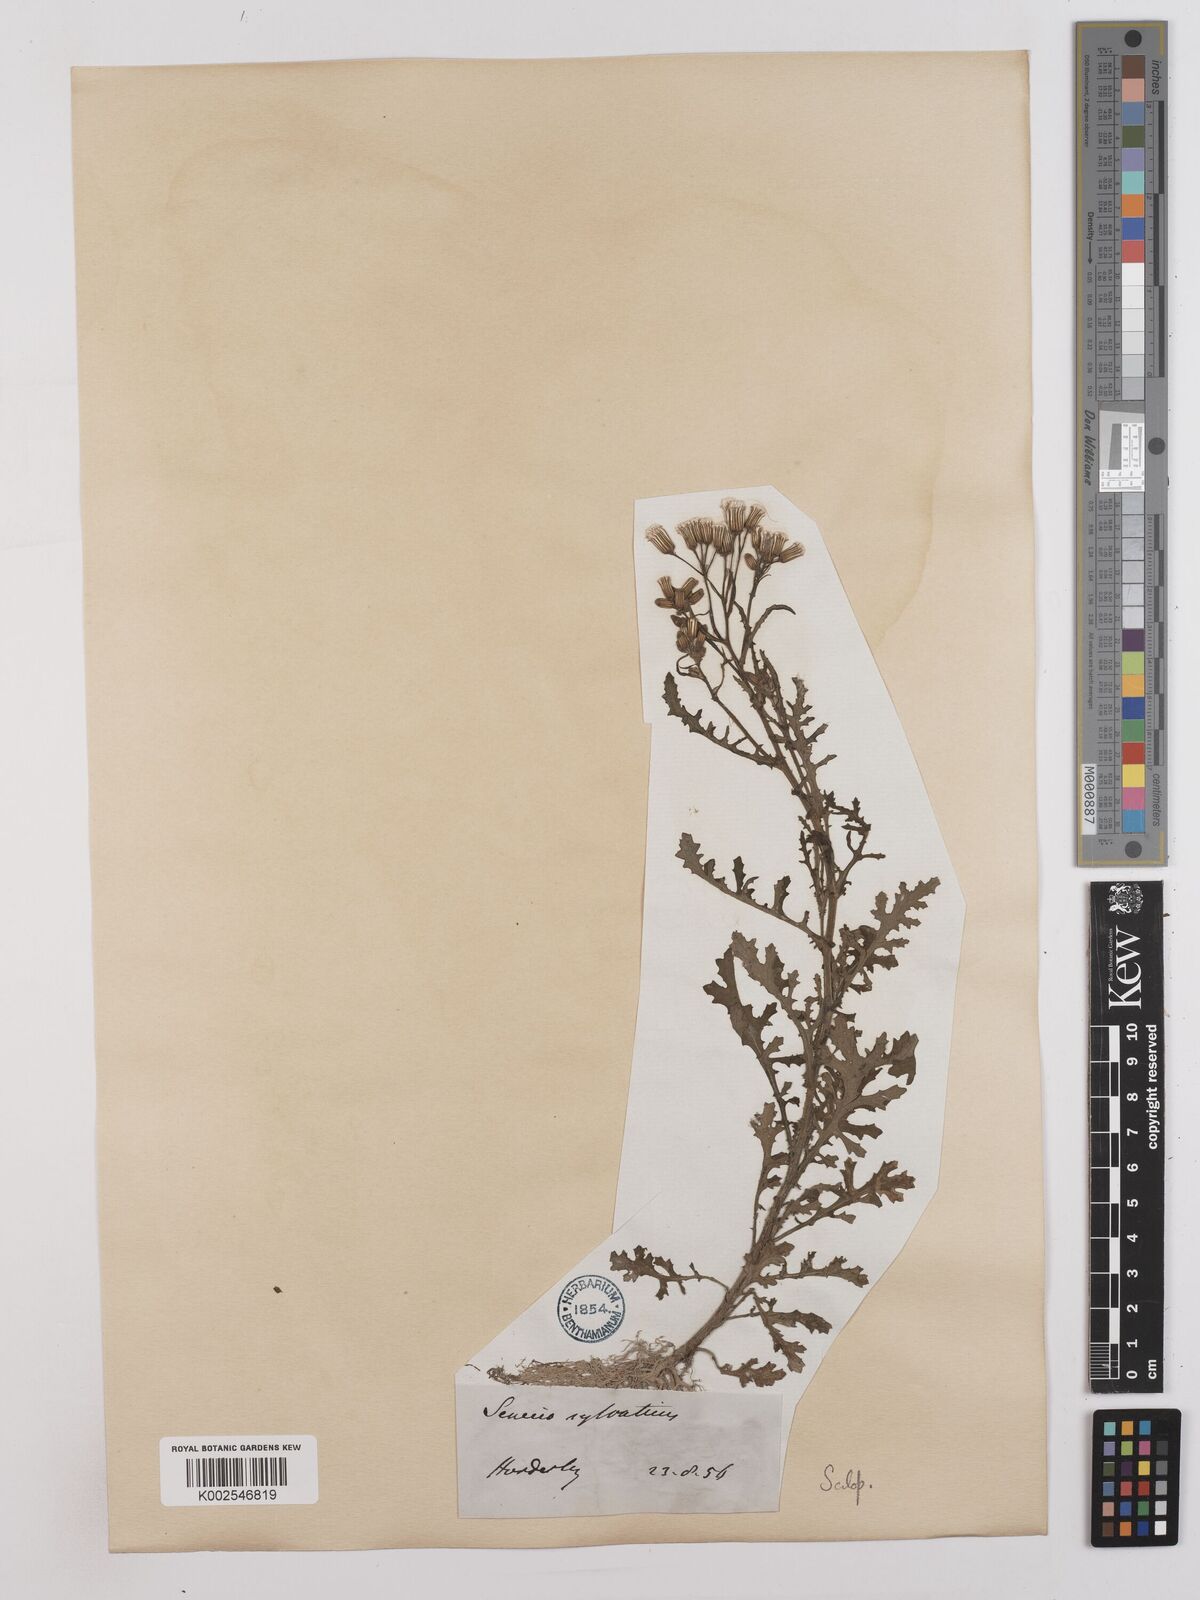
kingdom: Plantae
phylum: Tracheophyta
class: Magnoliopsida
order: Asterales
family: Asteraceae
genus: Senecio
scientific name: Senecio sylvaticus
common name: Woodland ragwort
